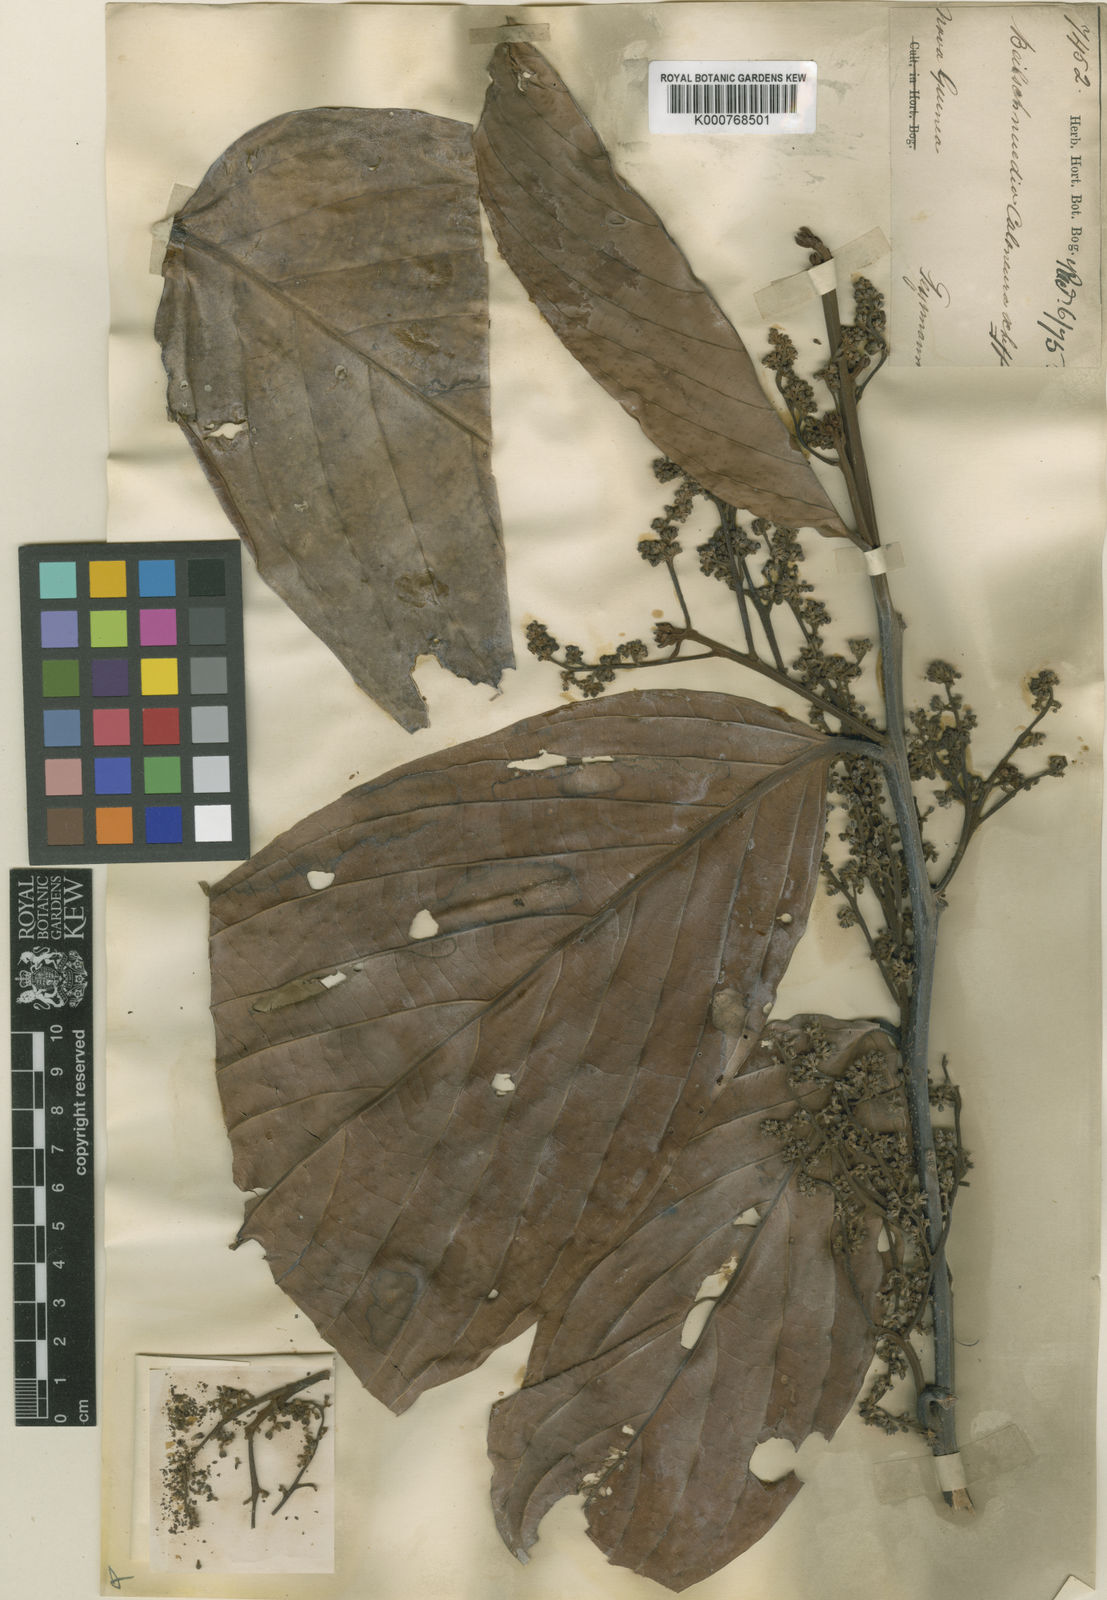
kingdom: Plantae
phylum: Tracheophyta
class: Magnoliopsida
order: Laurales
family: Lauraceae
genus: Litsea
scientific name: Litsea gigaphylla
